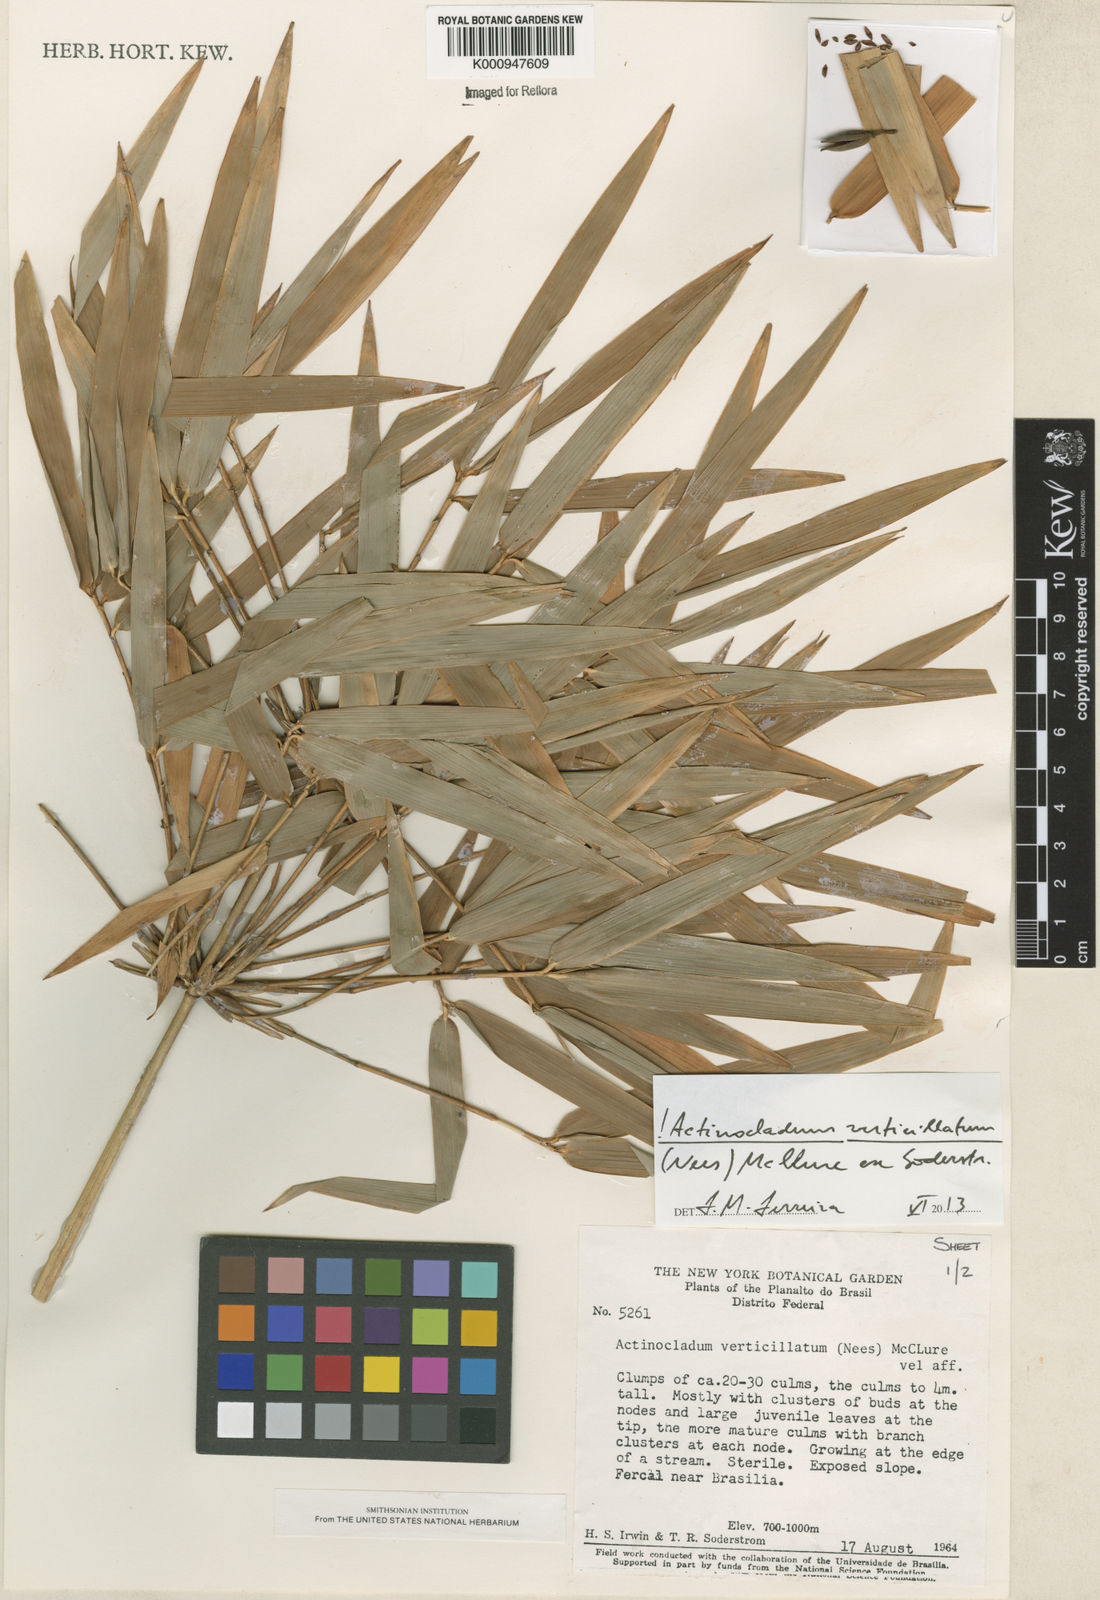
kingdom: Plantae
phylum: Tracheophyta
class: Liliopsida
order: Poales
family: Poaceae
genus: Actinocladum
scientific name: Actinocladum verticillatum
